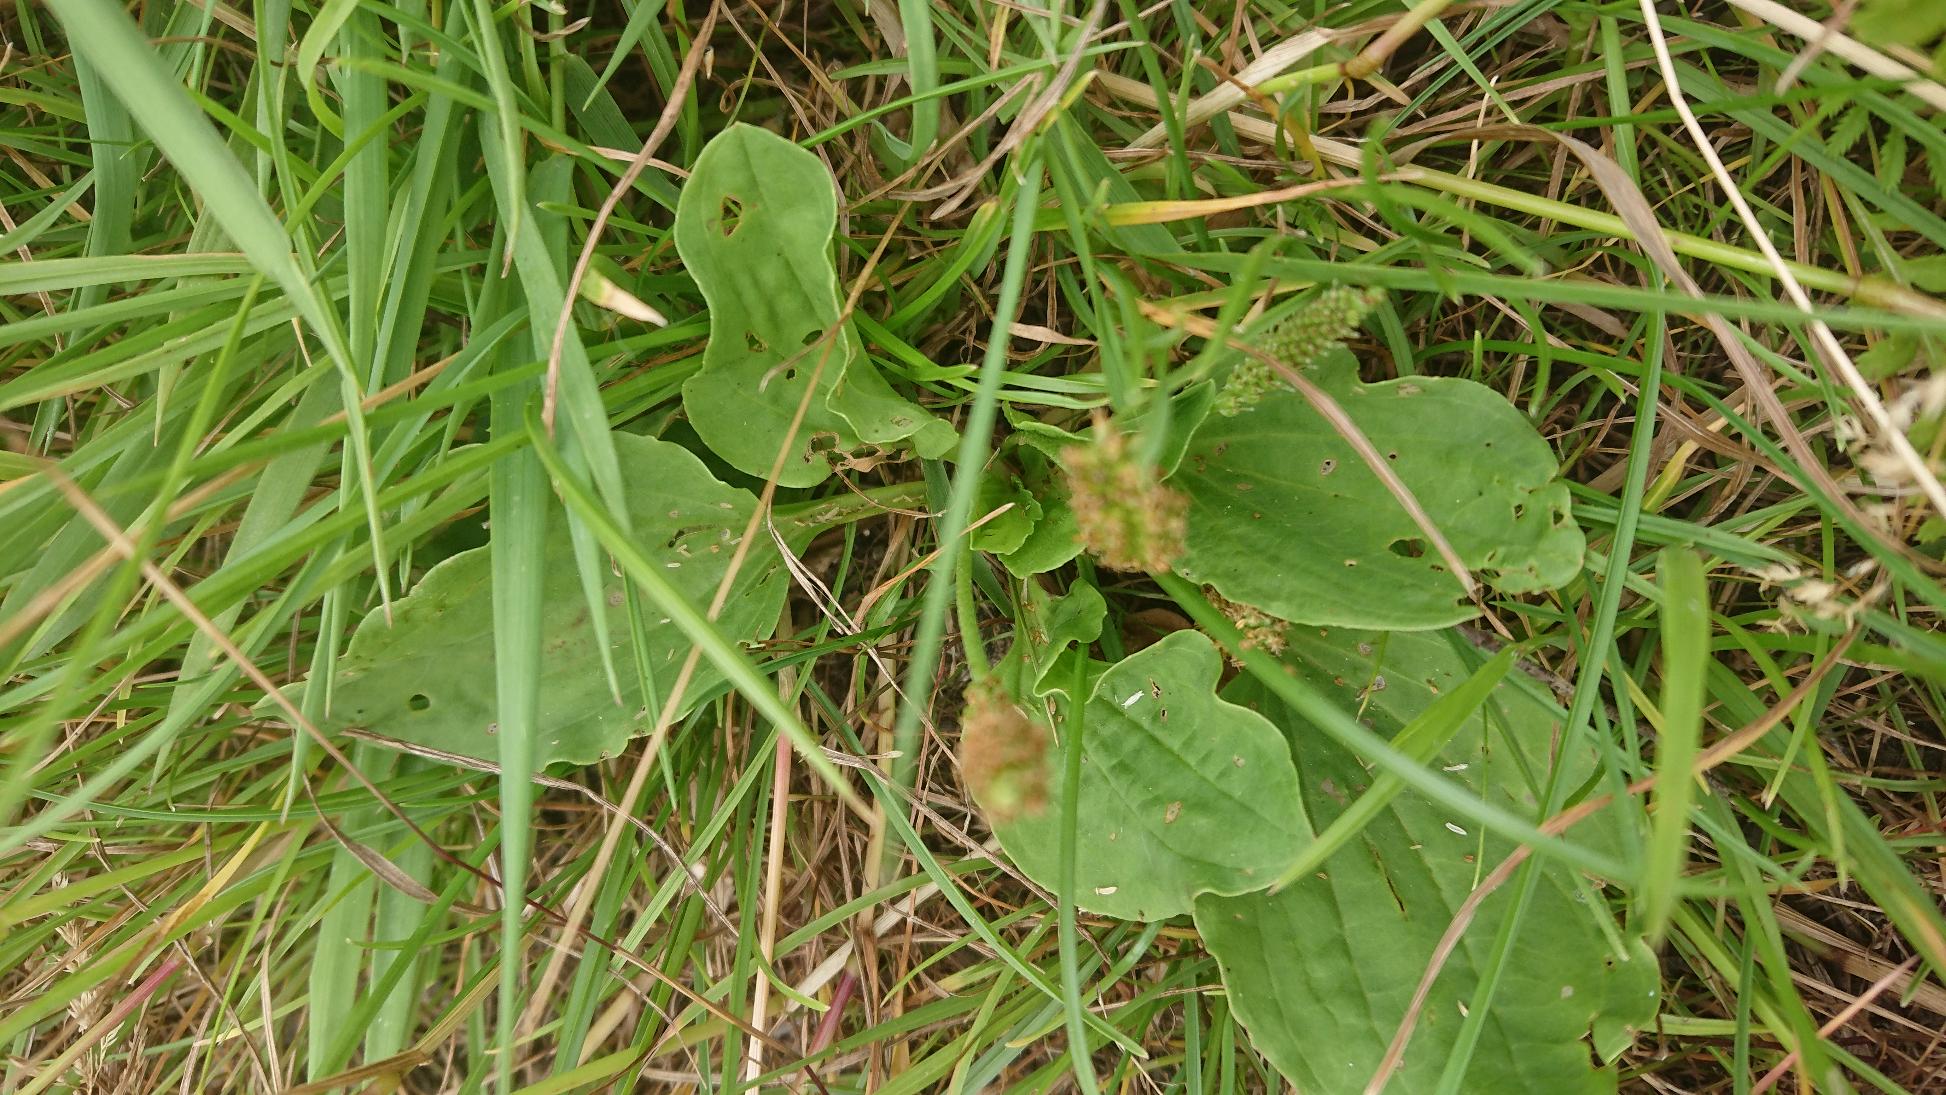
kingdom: Plantae
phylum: Tracheophyta
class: Magnoliopsida
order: Lamiales
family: Plantaginaceae
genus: Plantago
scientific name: Plantago major
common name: Glat vejbred
